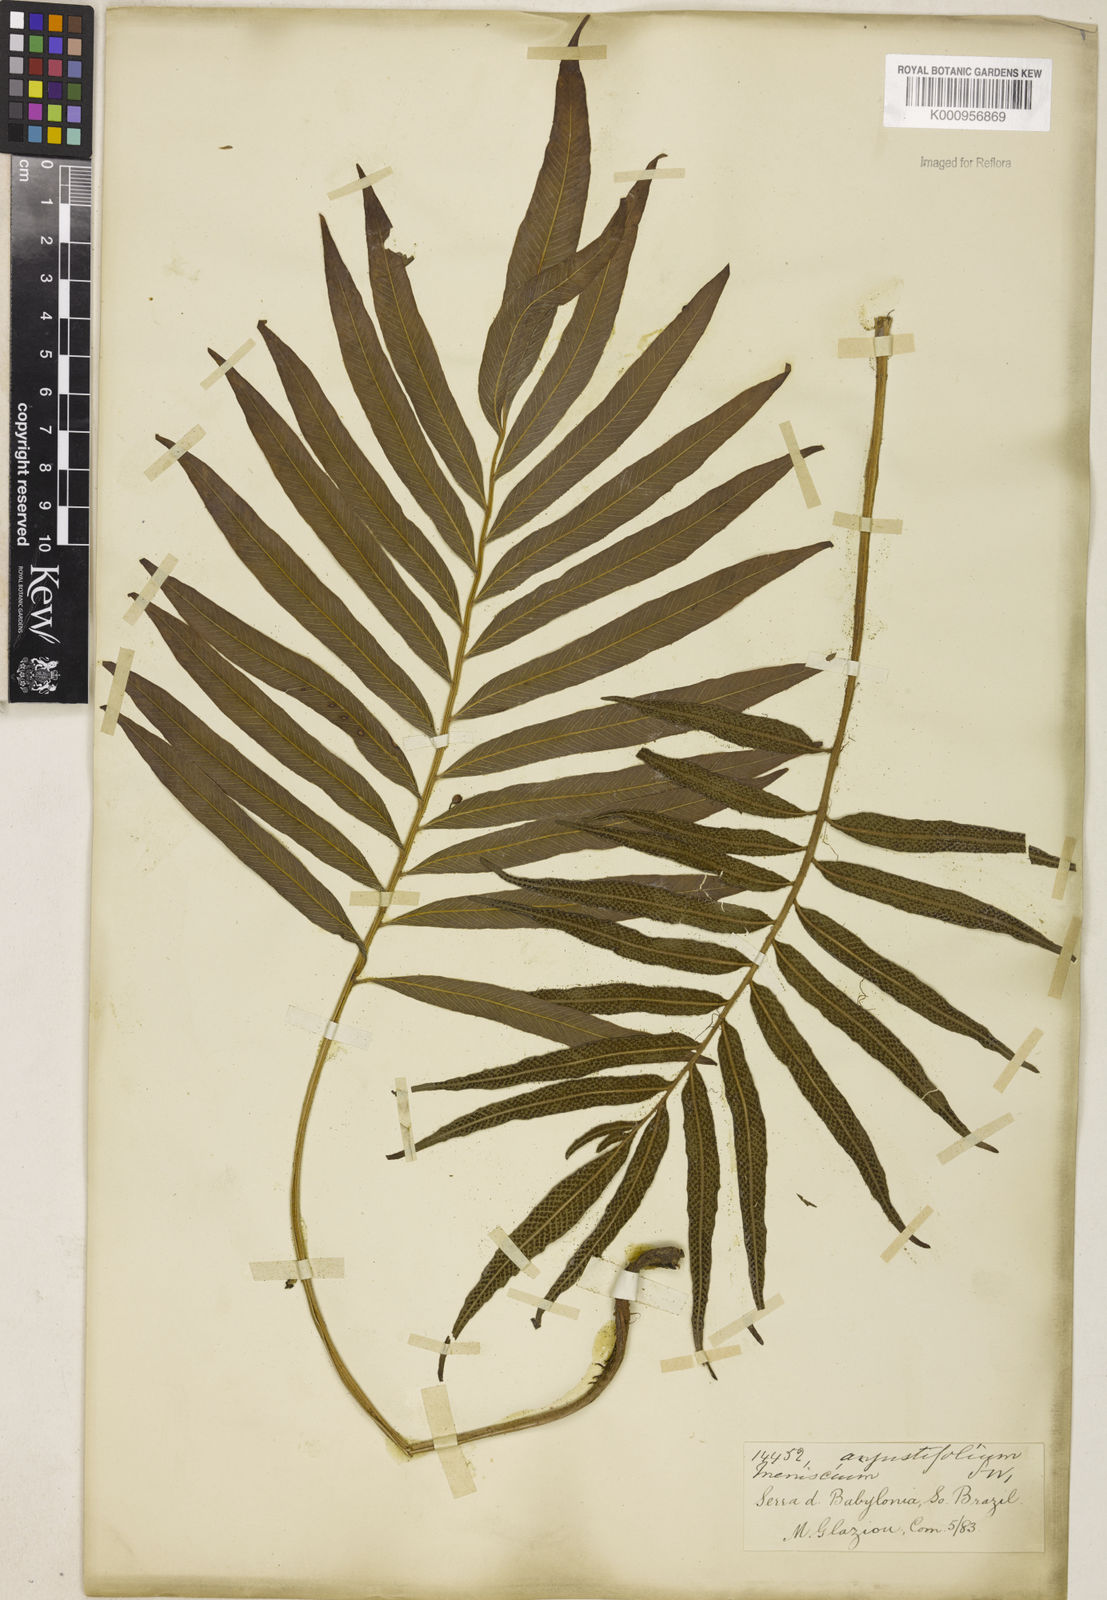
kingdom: Plantae
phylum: Tracheophyta
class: Polypodiopsida
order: Polypodiales
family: Thelypteridaceae
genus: Meniscium
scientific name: Meniscium angustifolium
